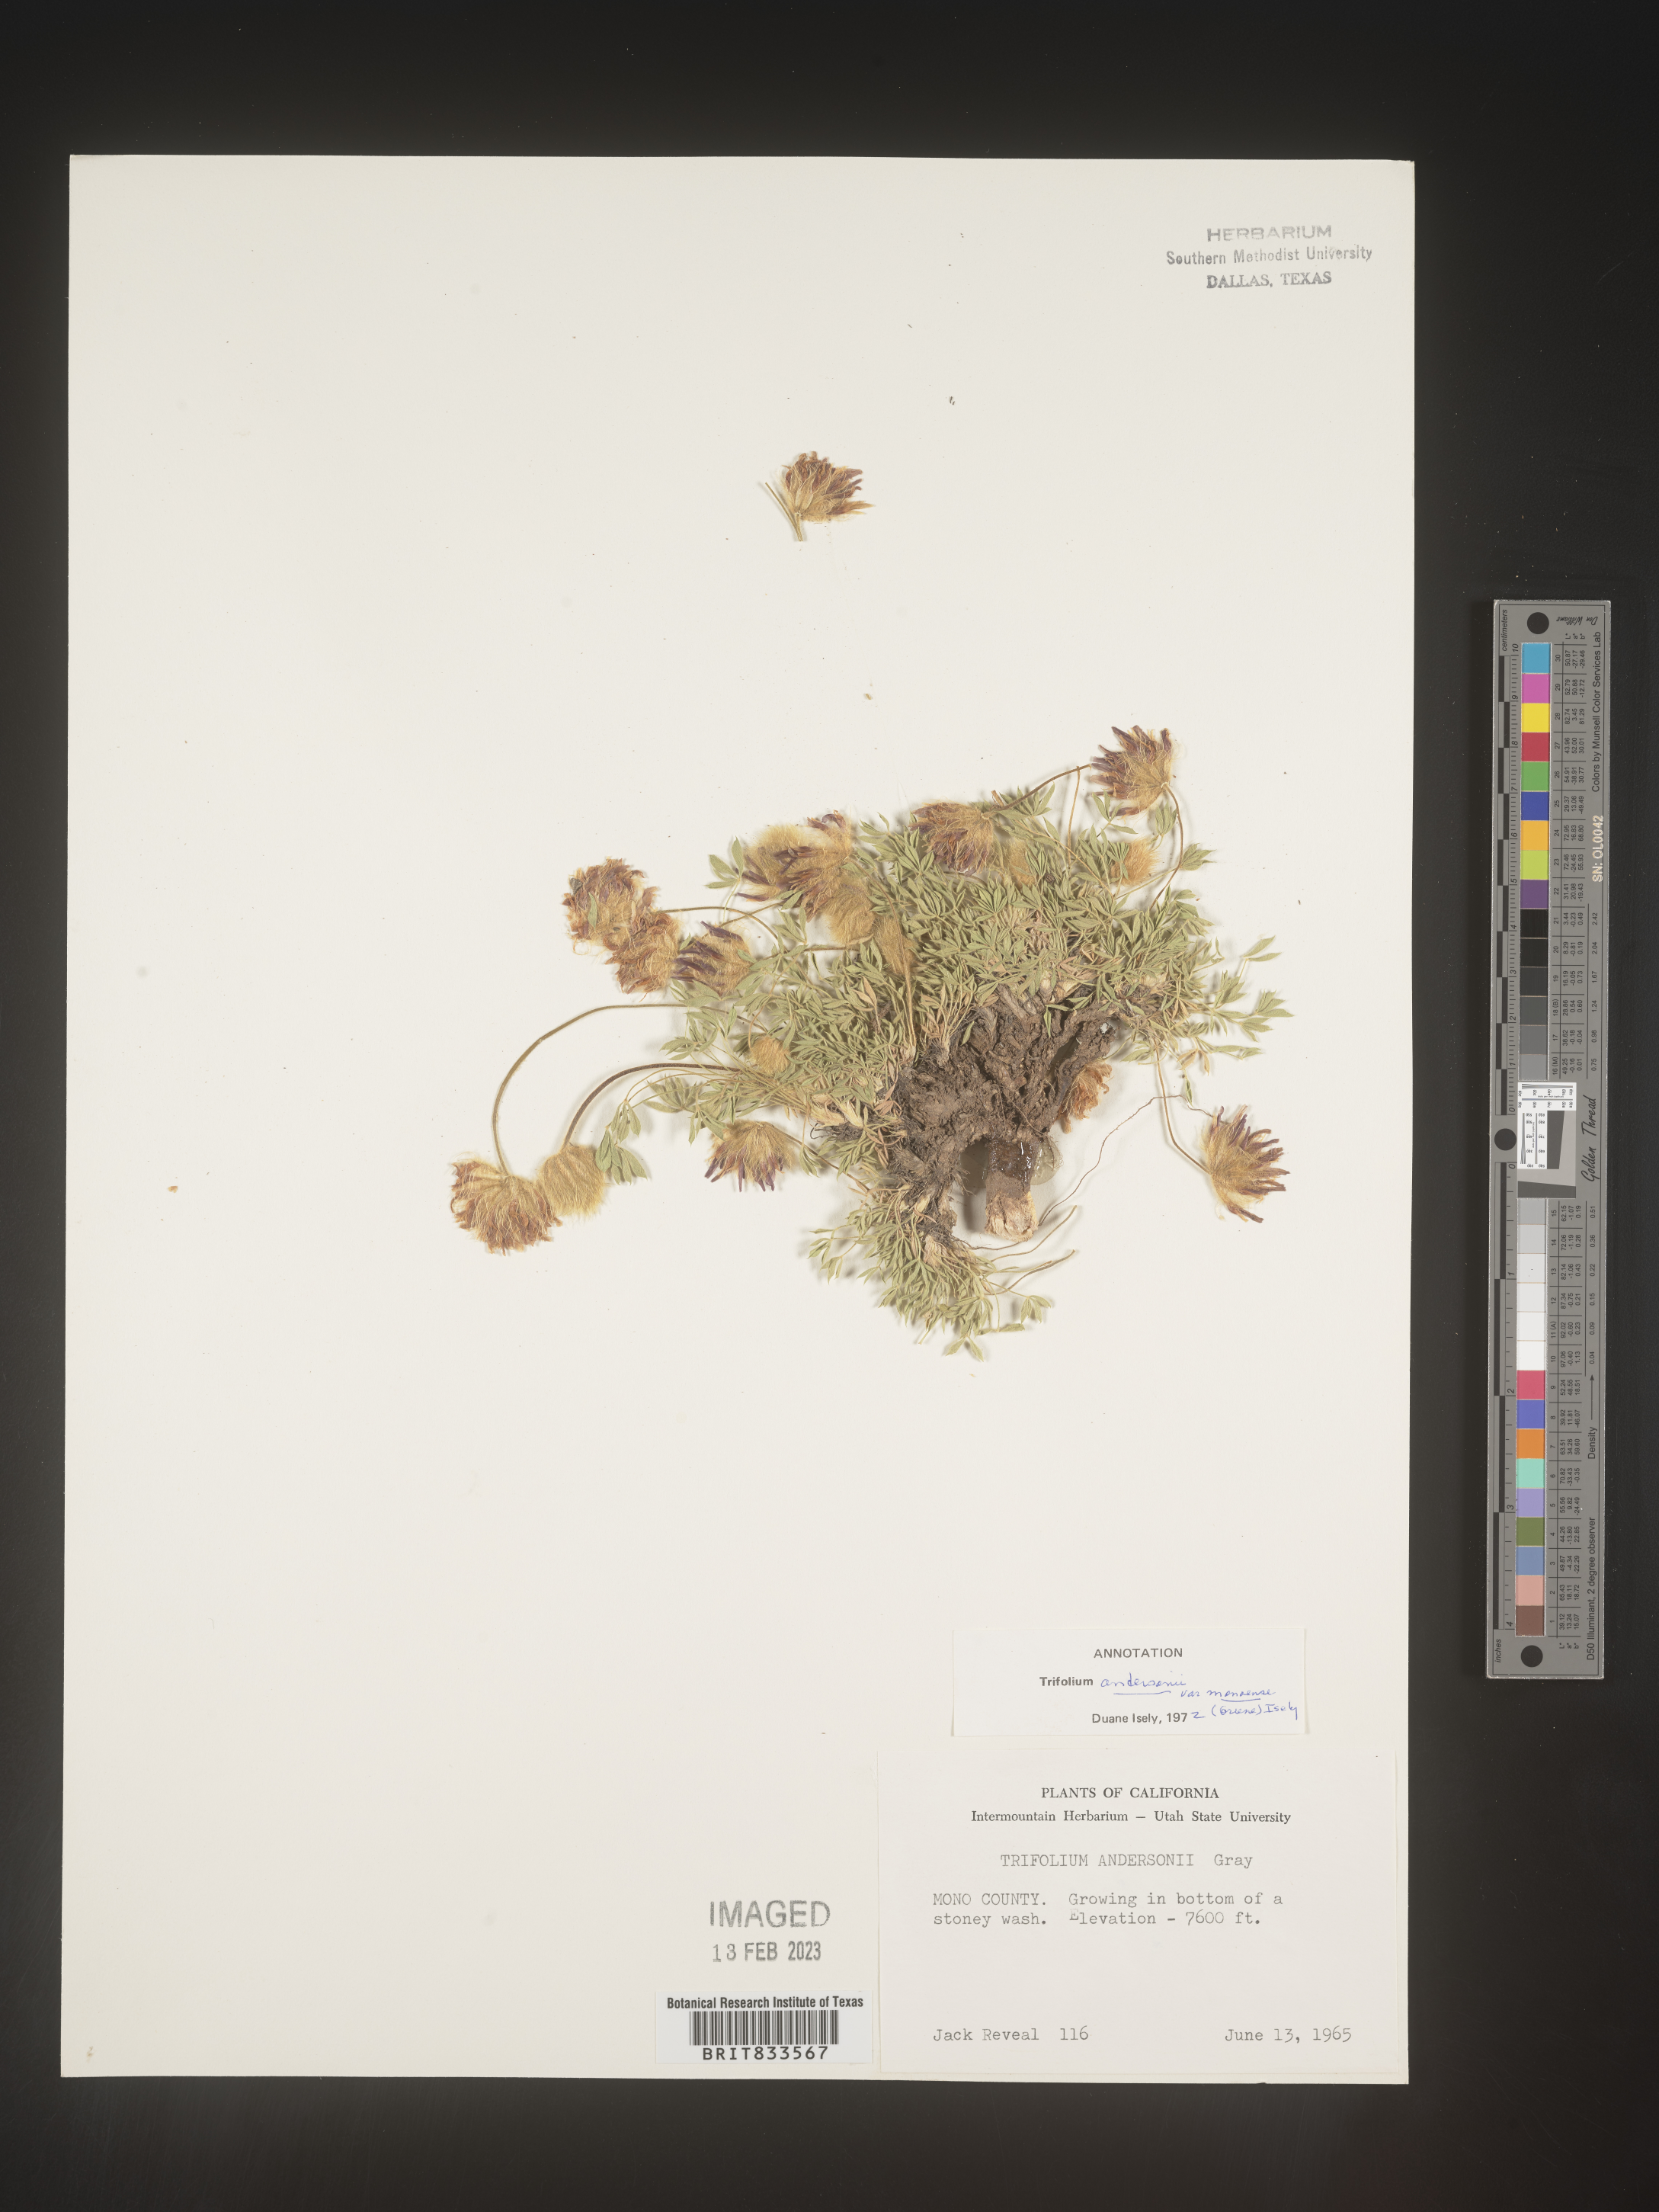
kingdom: Plantae
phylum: Tracheophyta
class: Magnoliopsida
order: Fabales
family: Fabaceae
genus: Trifolium
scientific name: Trifolium
